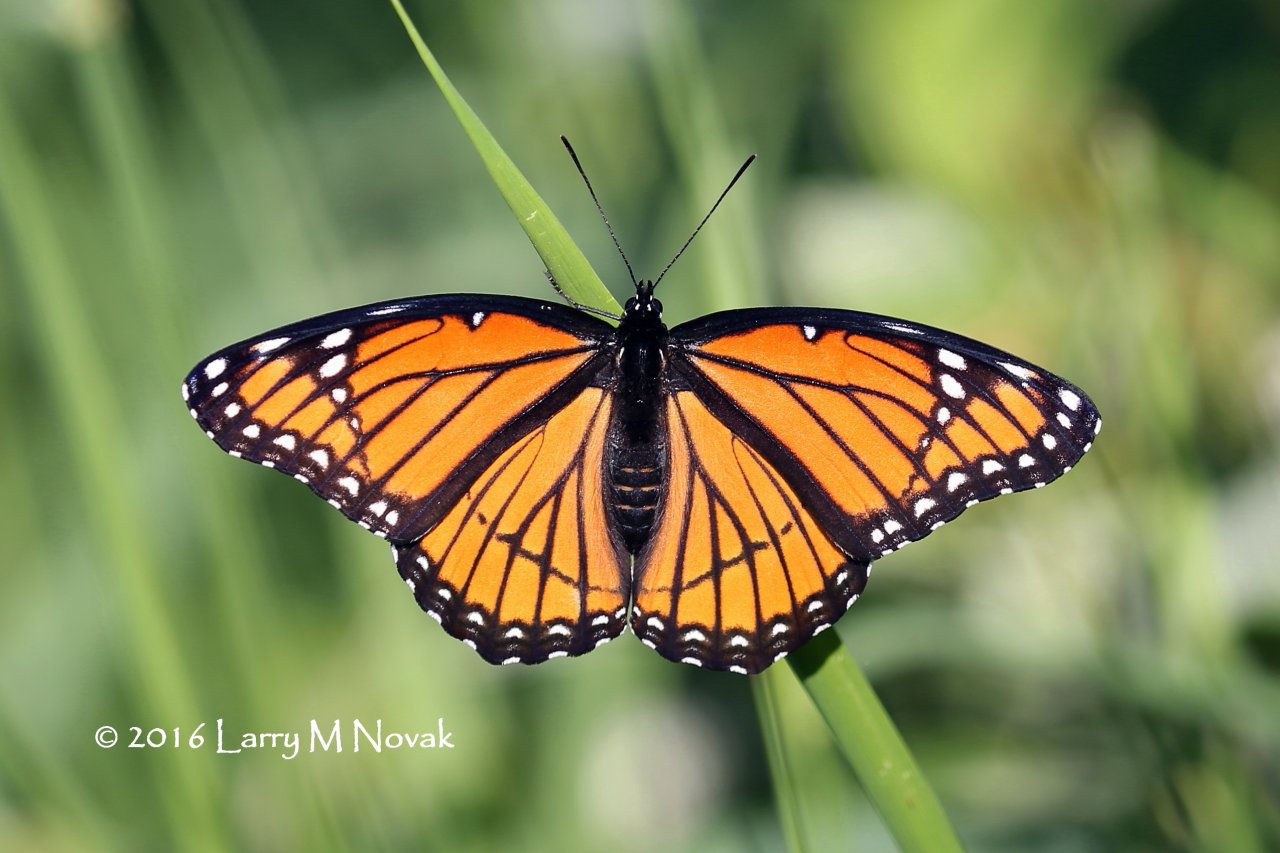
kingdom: Animalia
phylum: Arthropoda
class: Insecta
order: Lepidoptera
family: Nymphalidae
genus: Limenitis
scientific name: Limenitis archippus
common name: Viceroy
